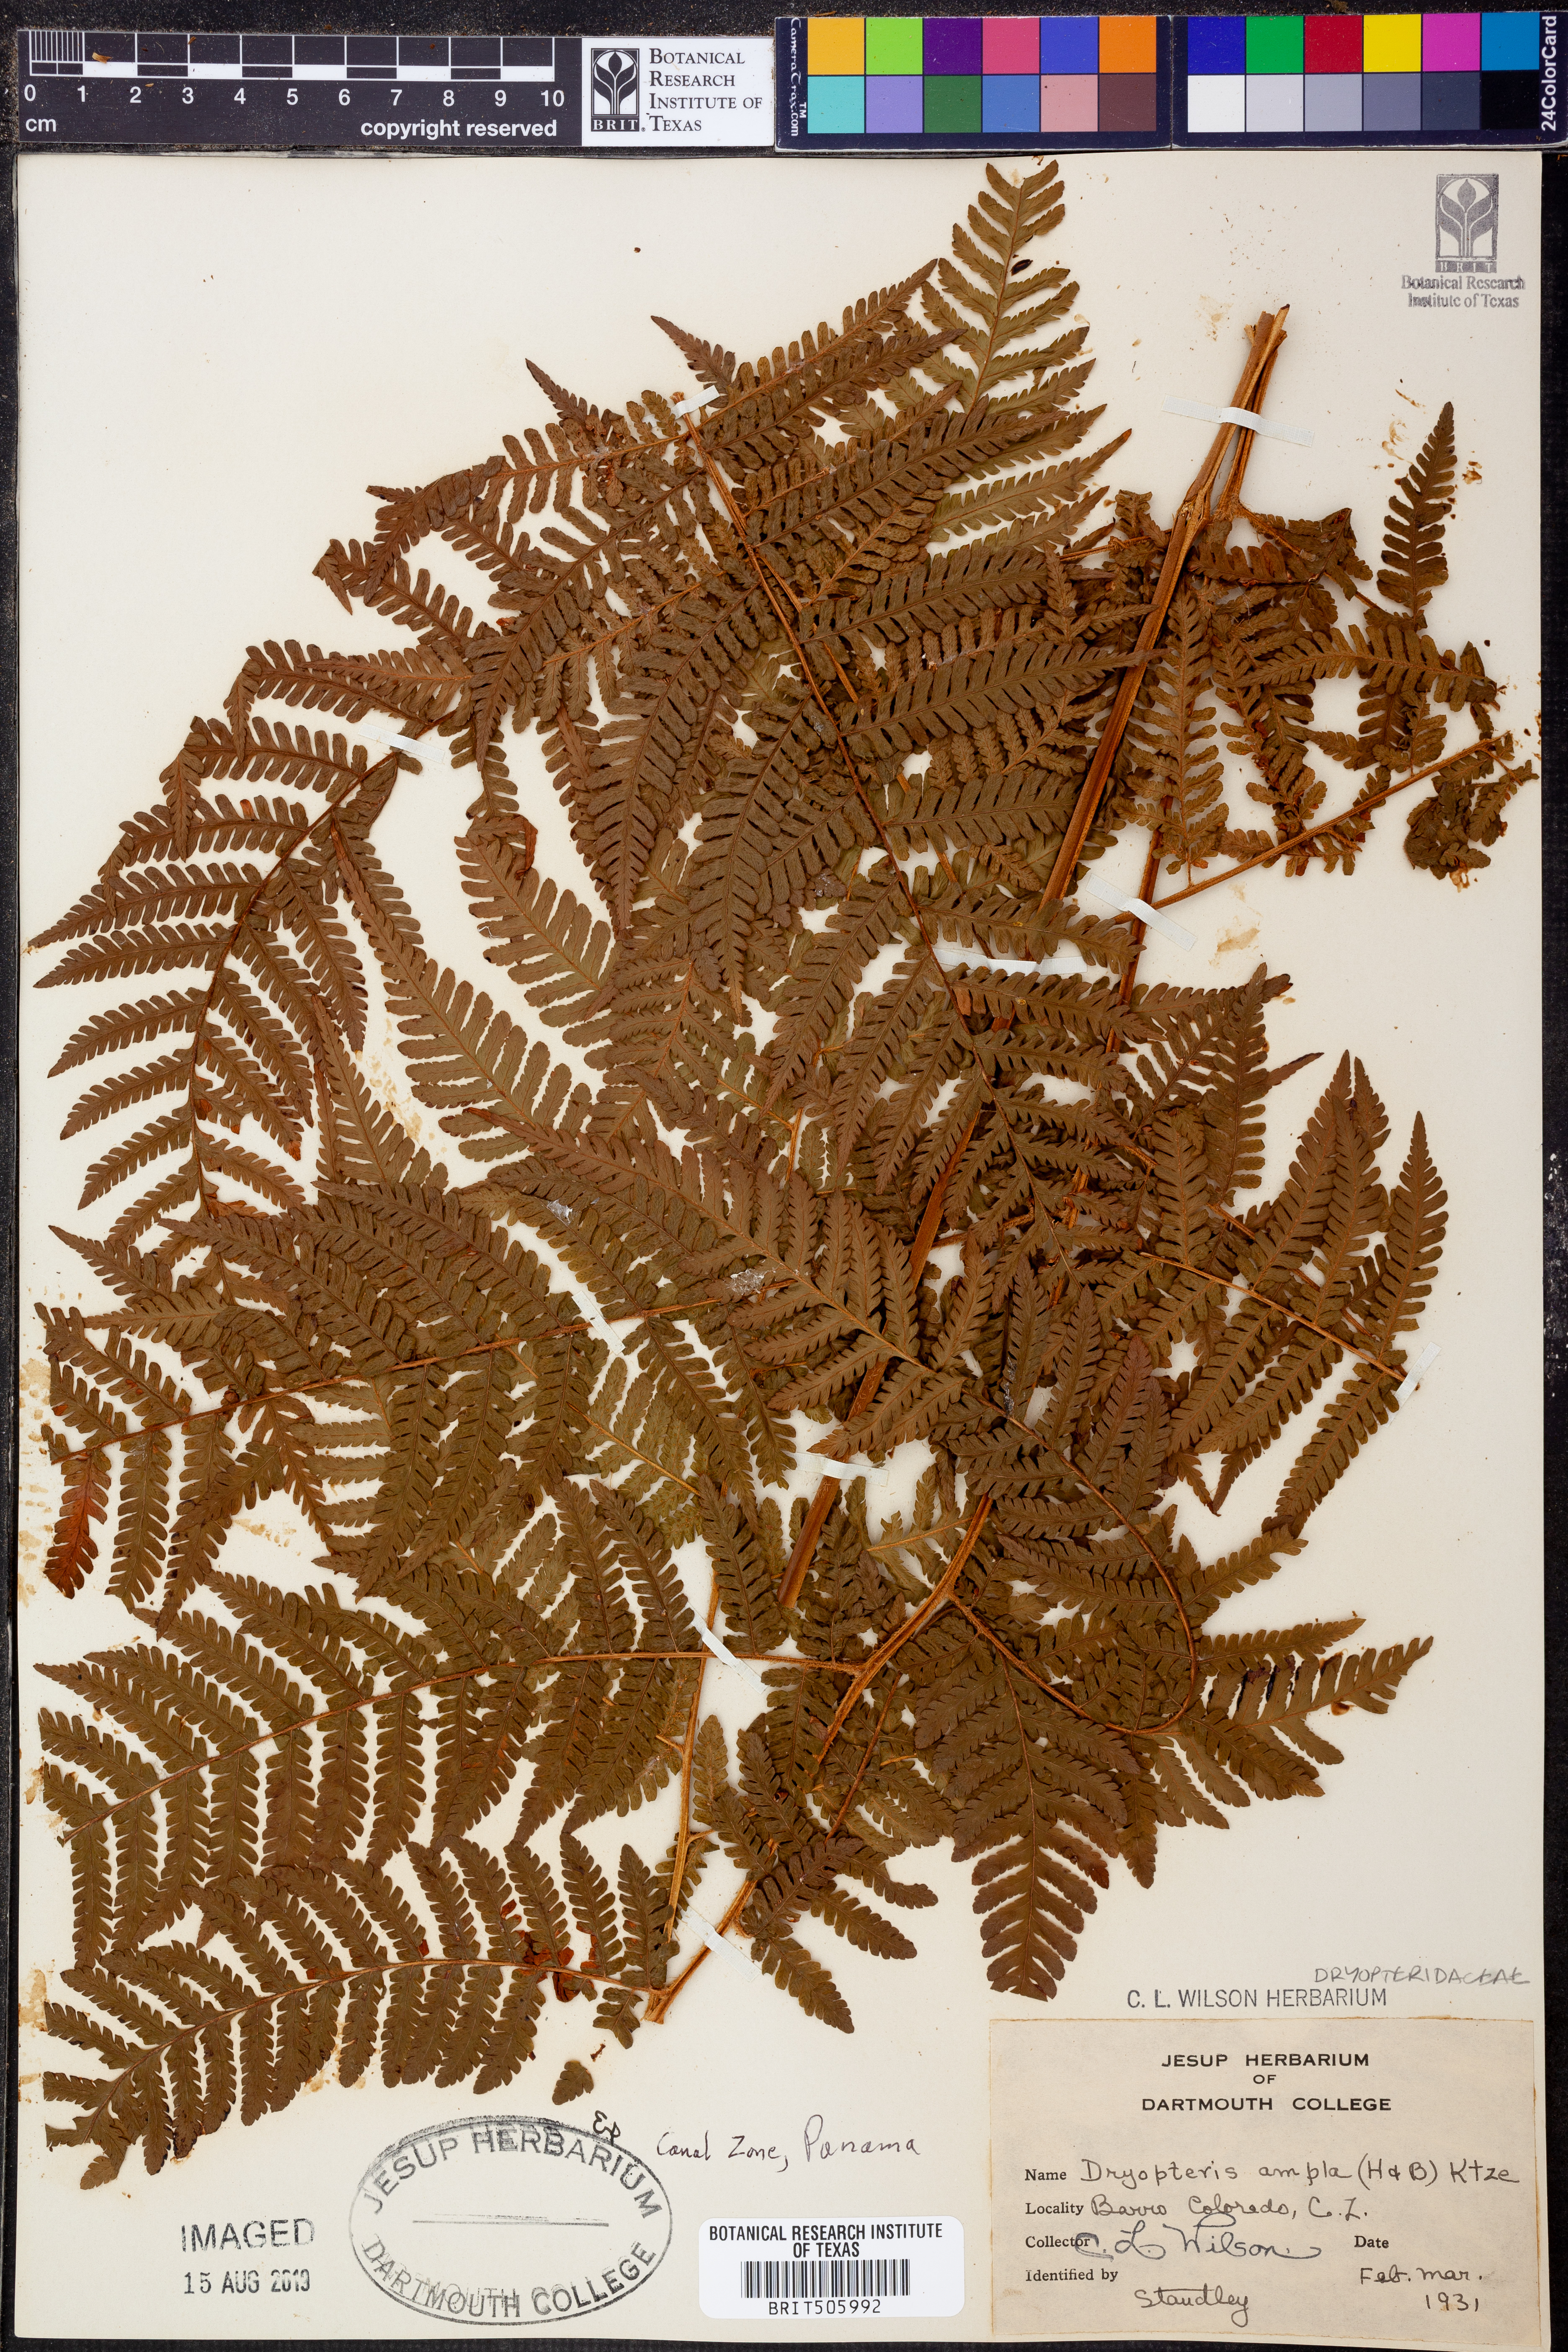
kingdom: Plantae
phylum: Tracheophyta
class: Polypodiopsida
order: Polypodiales
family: Dryopteridaceae
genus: Ctenitis
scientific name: Ctenitis sloanei
